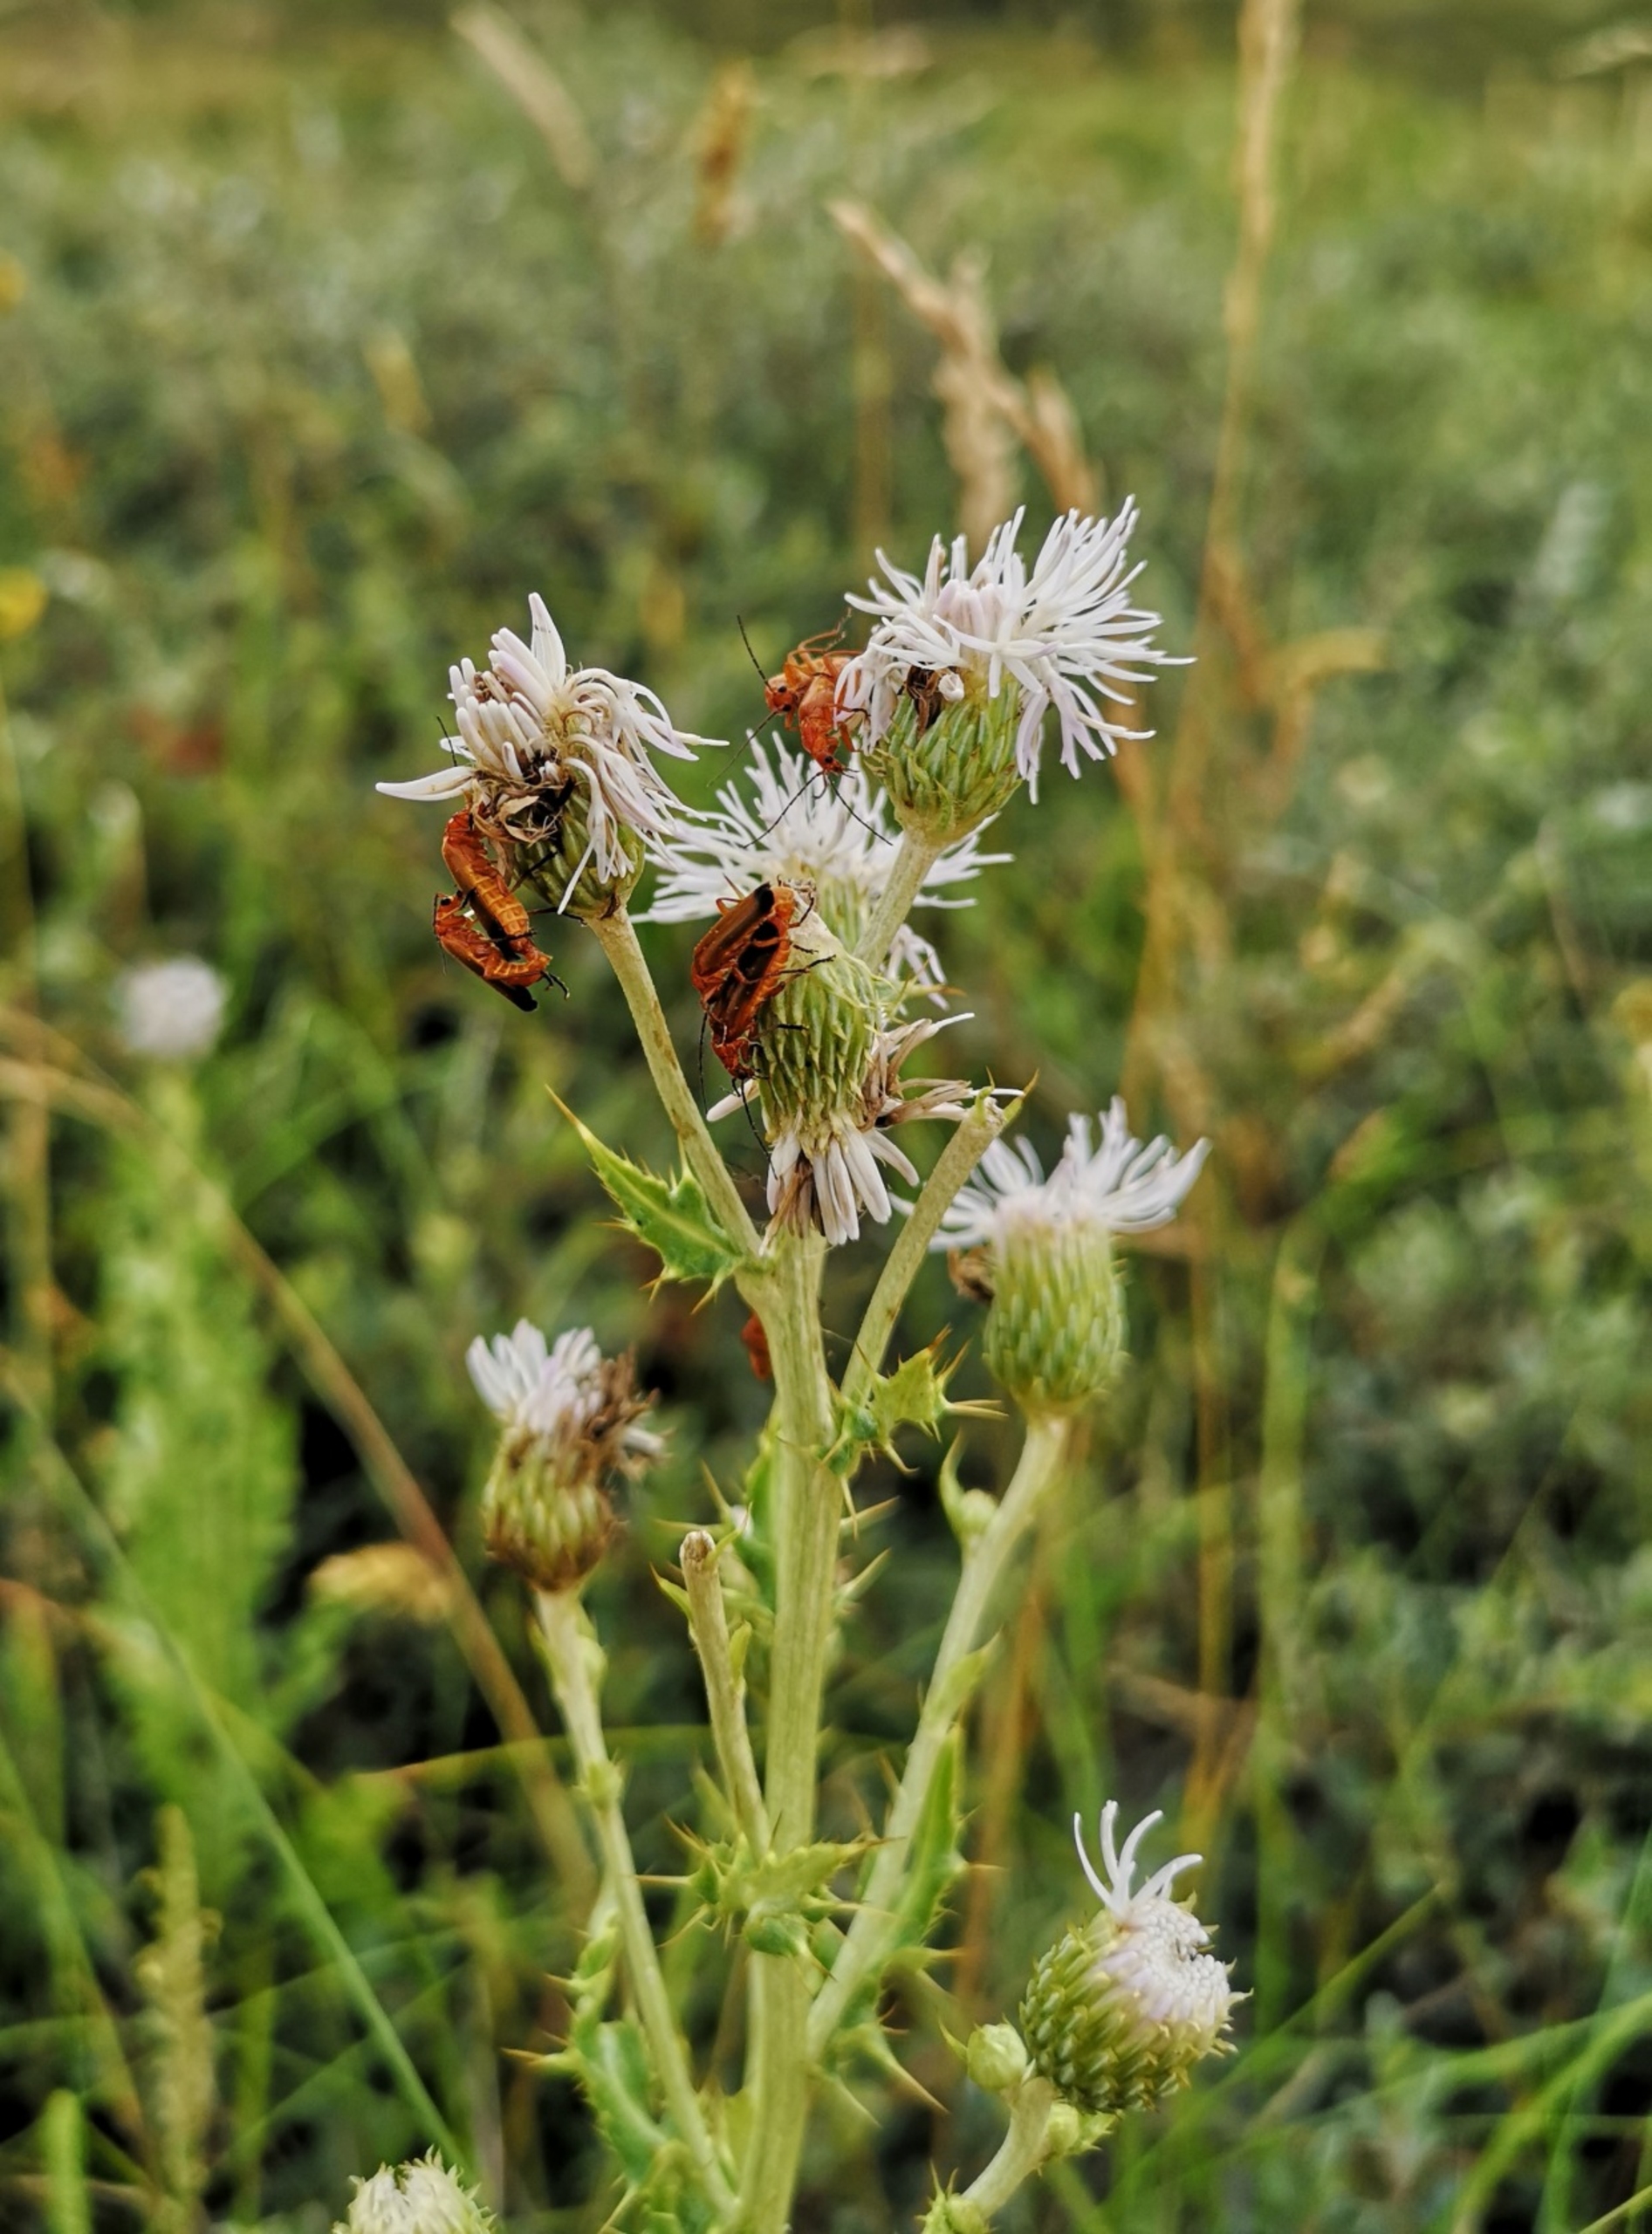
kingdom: Animalia
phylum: Arthropoda
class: Insecta
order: Coleoptera
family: Cantharidae
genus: Rhagonycha
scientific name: Rhagonycha fulva
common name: Præstebille
